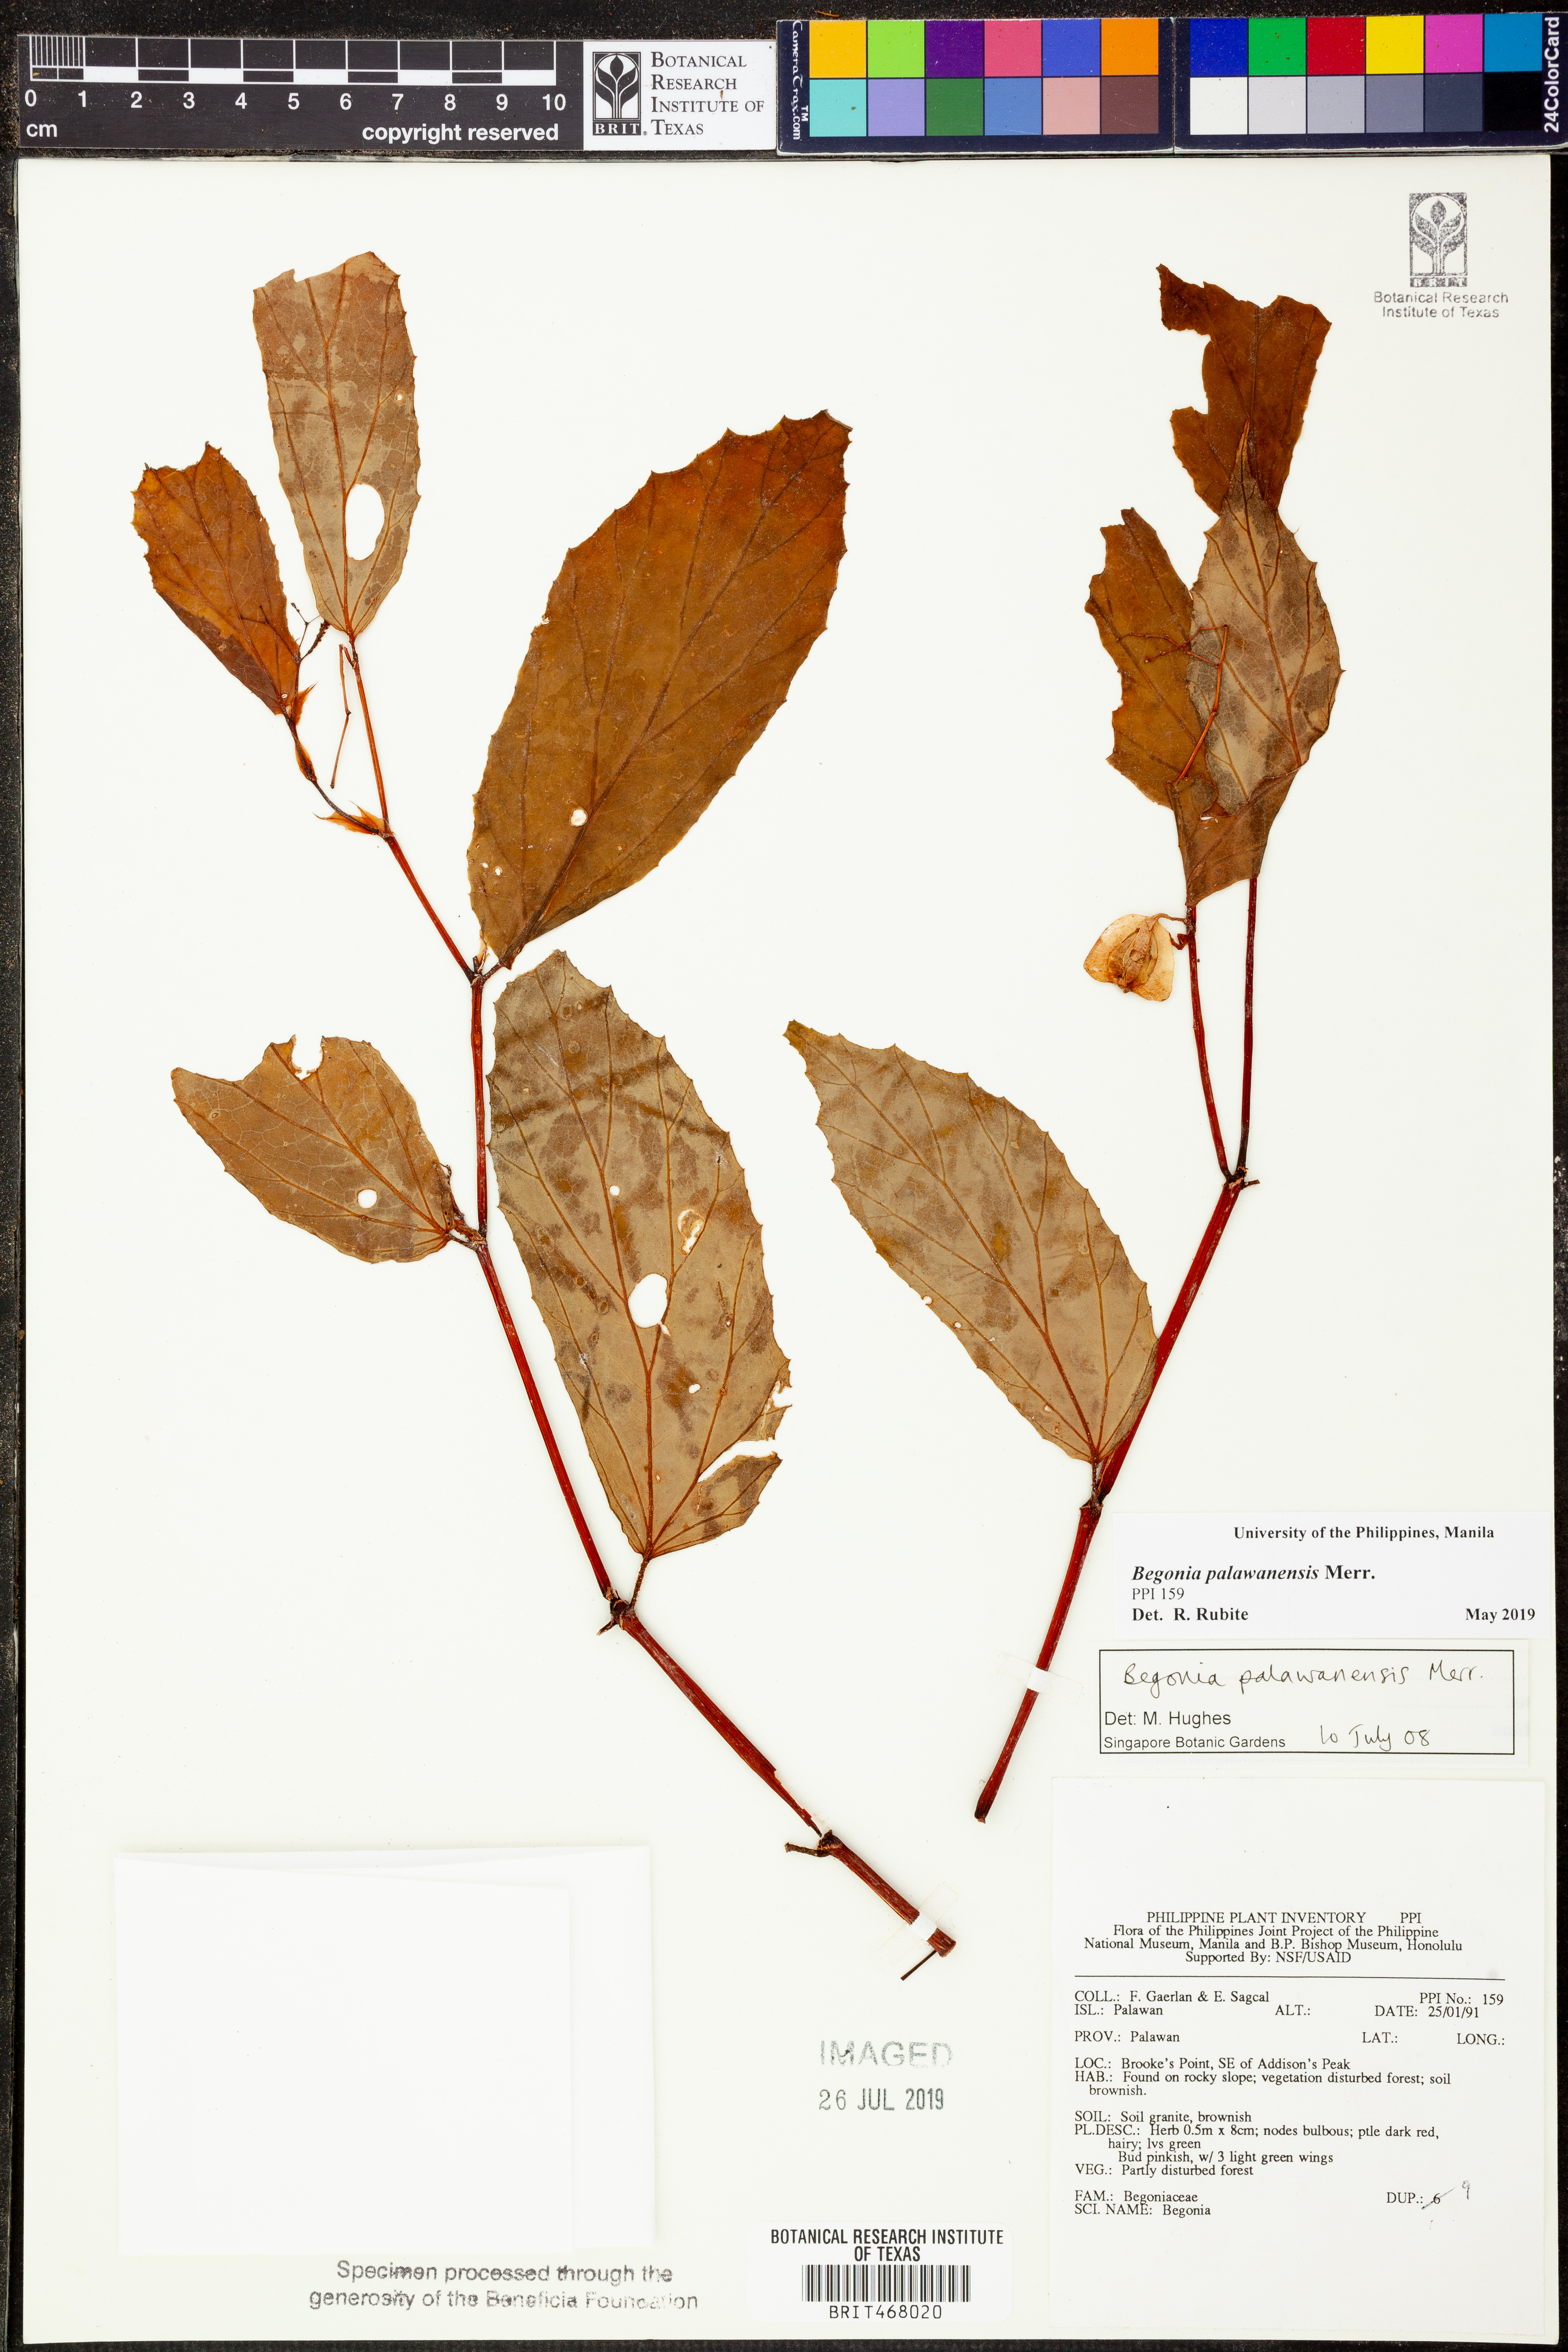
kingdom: Plantae
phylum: Tracheophyta
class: Magnoliopsida
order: Cucurbitales
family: Begoniaceae
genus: Begonia
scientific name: Begonia palawanensis
